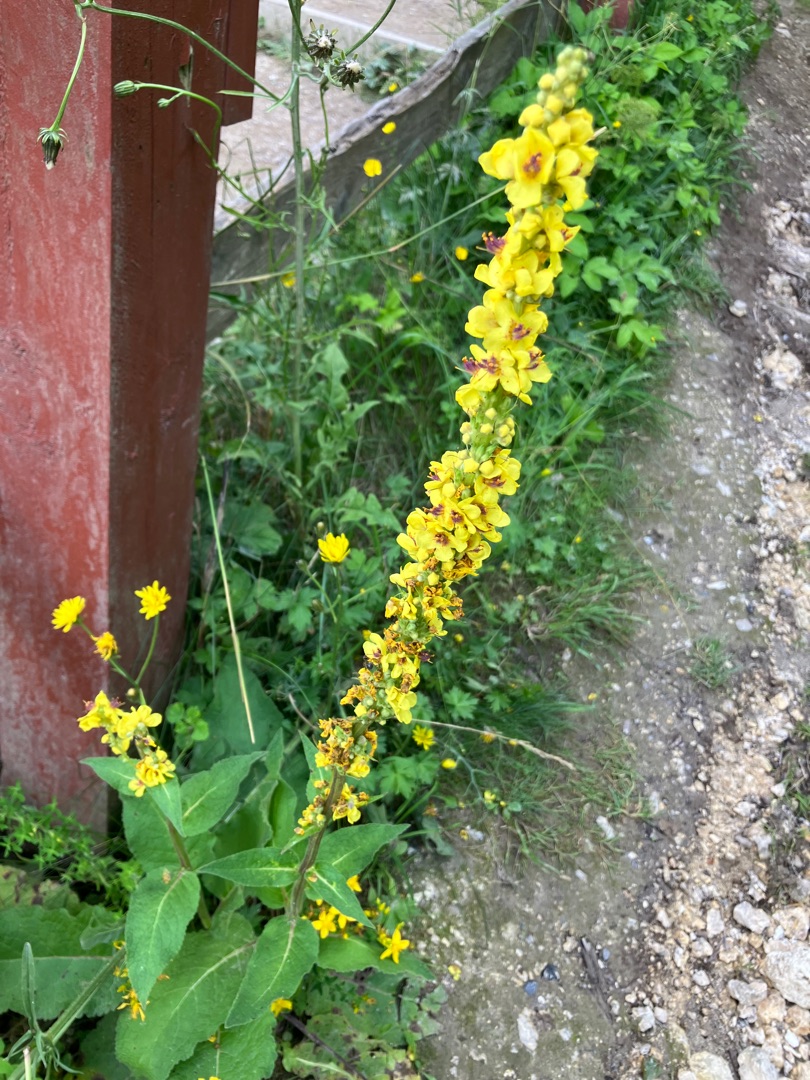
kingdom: Plantae
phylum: Tracheophyta
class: Magnoliopsida
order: Lamiales
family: Scrophulariaceae
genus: Verbascum
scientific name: Verbascum nigrum
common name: Mørk kongelys
